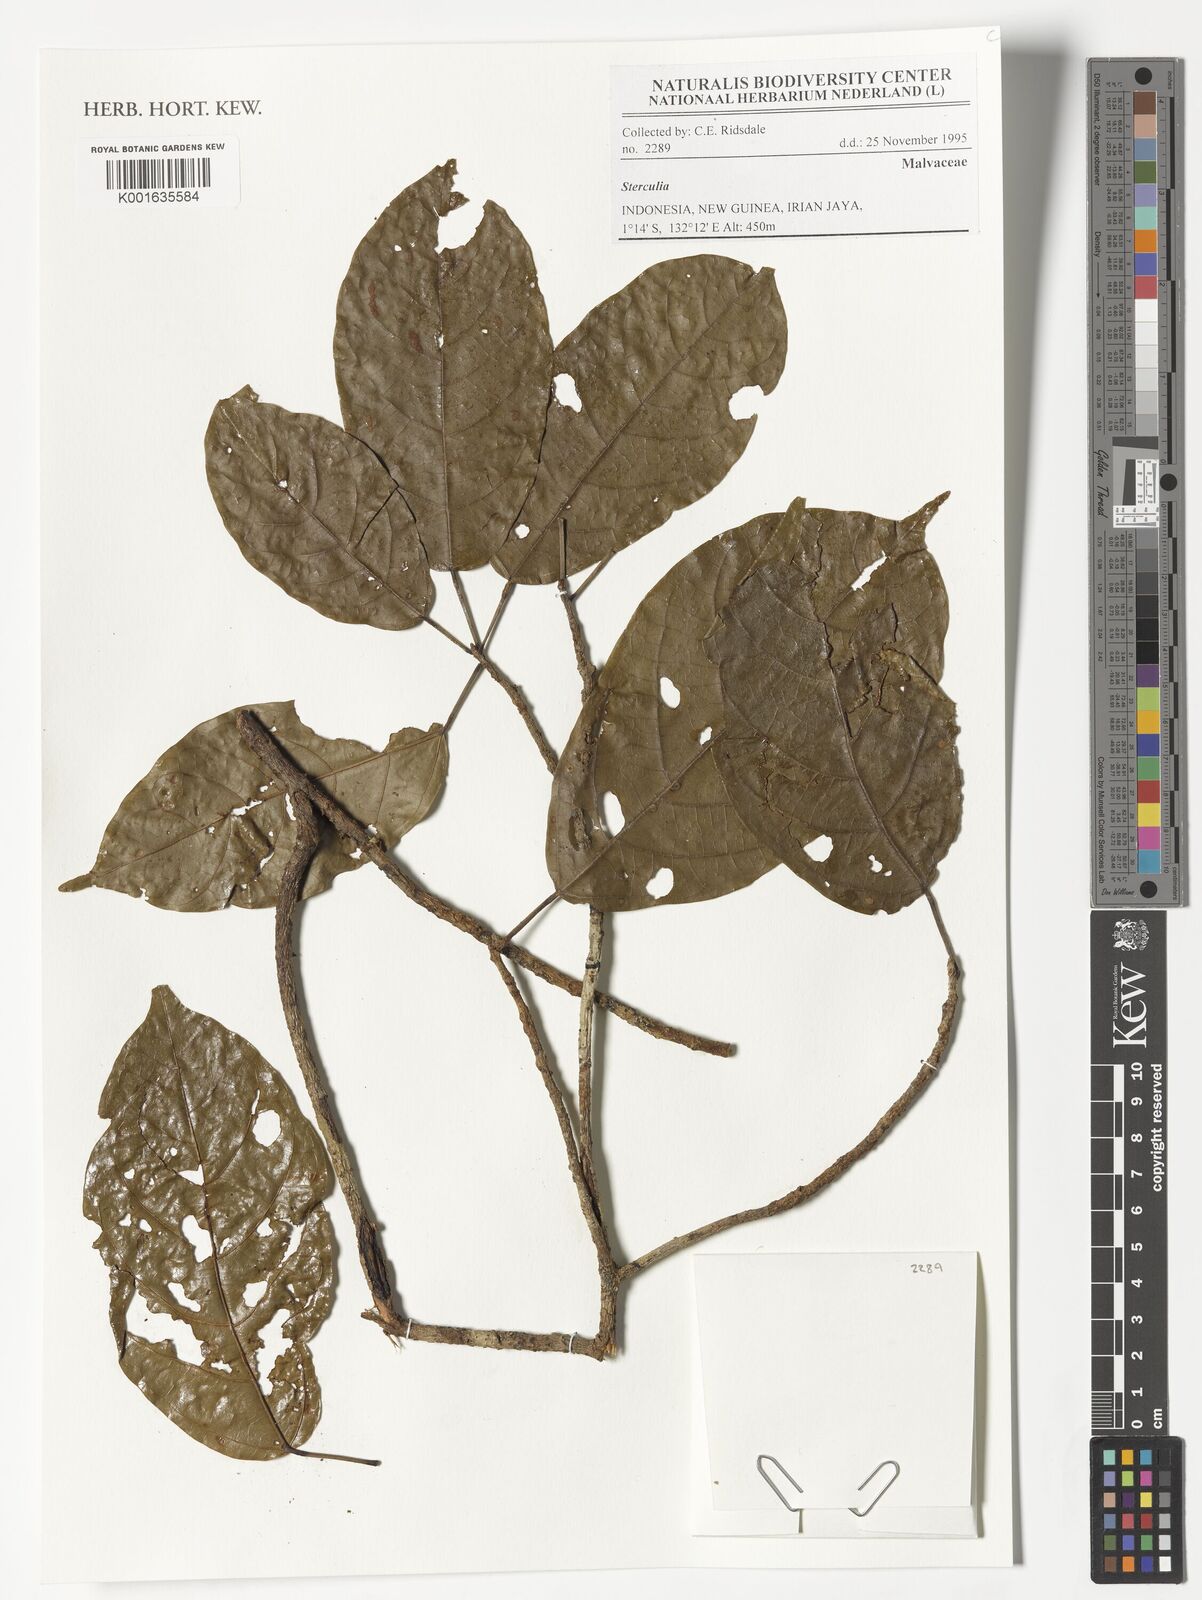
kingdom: Plantae
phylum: Tracheophyta
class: Magnoliopsida
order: Malvales
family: Malvaceae
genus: Sterculia
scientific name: Sterculia
